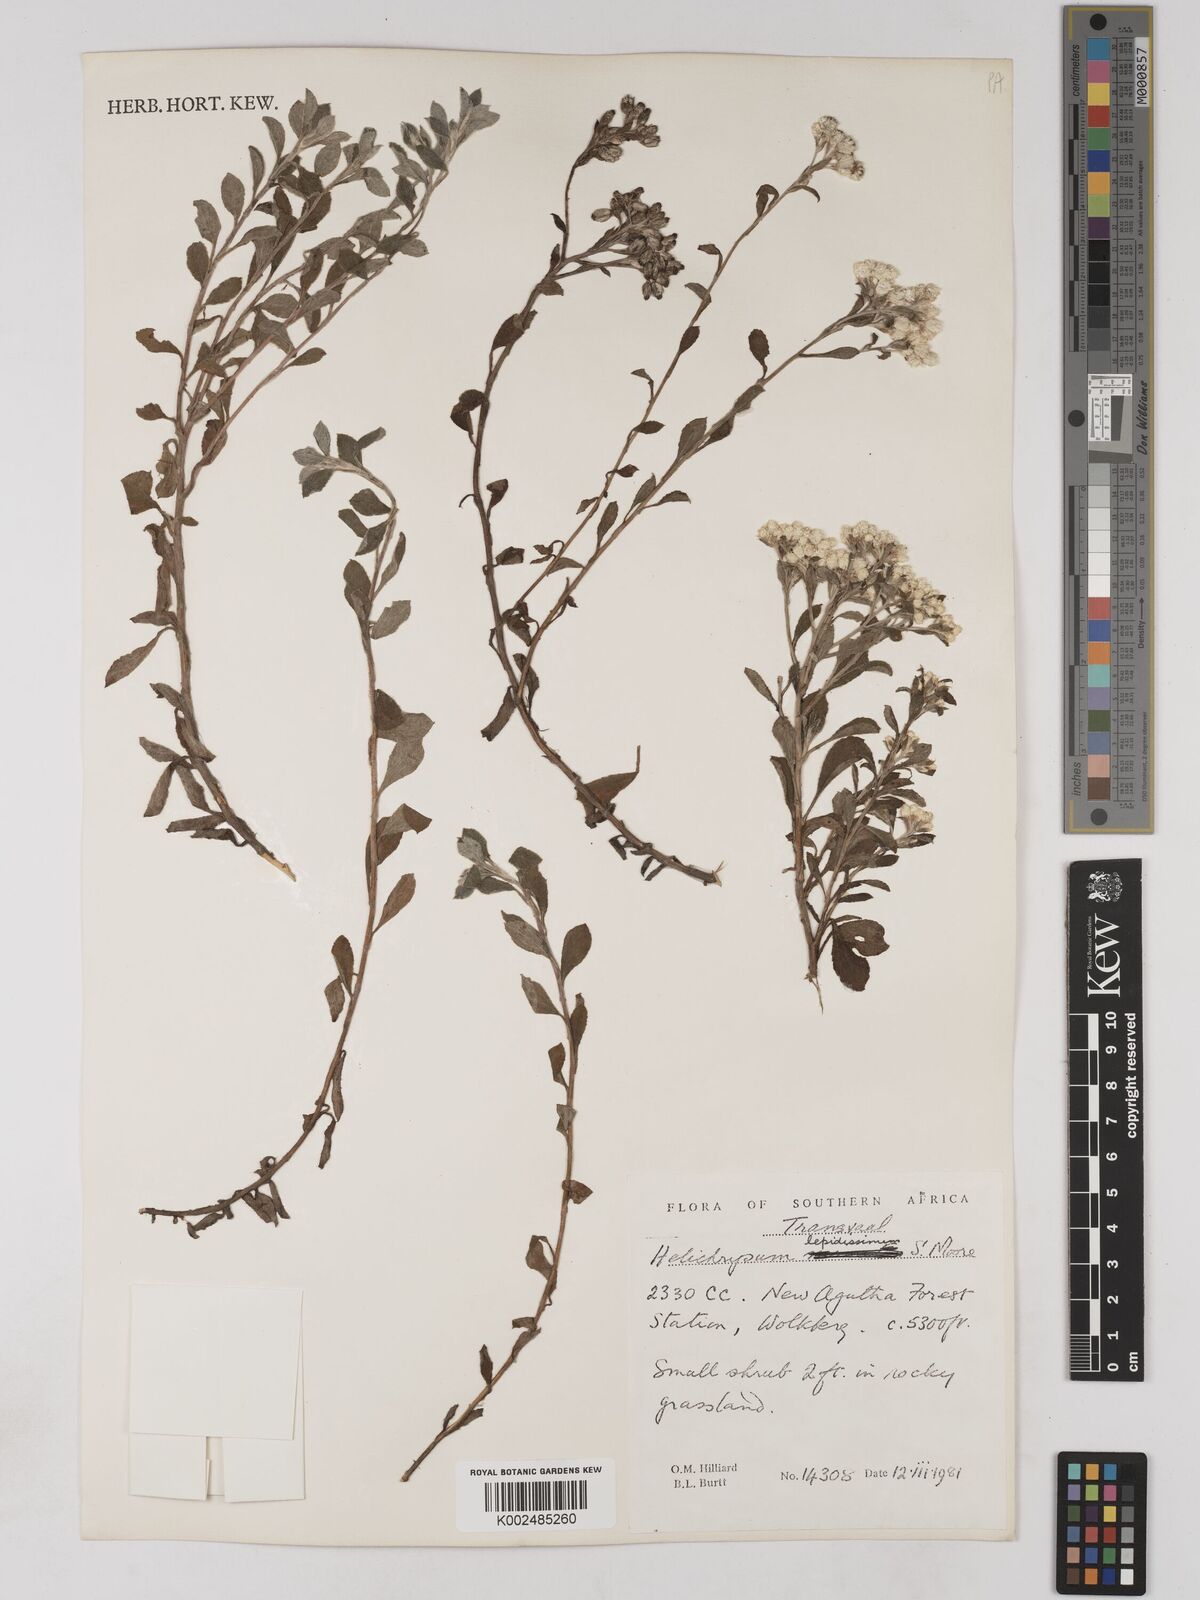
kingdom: Plantae
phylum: Tracheophyta
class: Magnoliopsida
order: Asterales
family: Asteraceae
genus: Helichrysum
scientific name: Helichrysum lepidissimum
